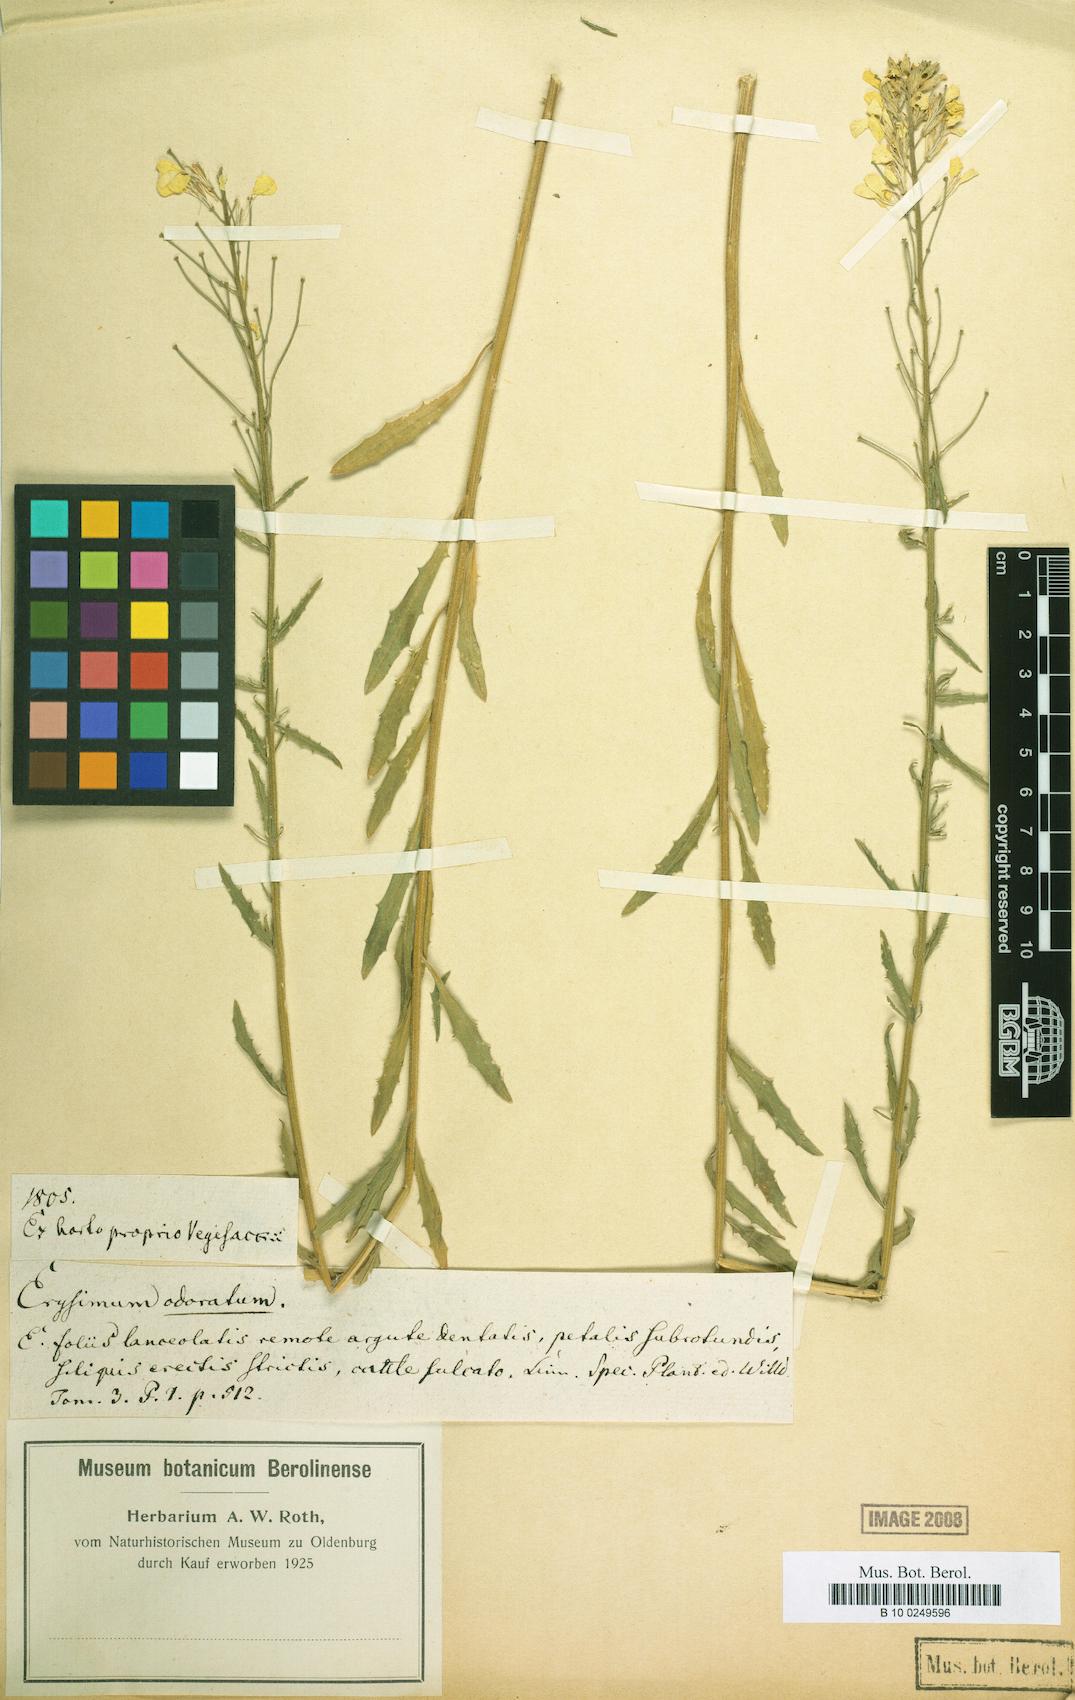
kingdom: Plantae
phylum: Tracheophyta
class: Magnoliopsida
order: Brassicales
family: Brassicaceae
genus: Erysimum
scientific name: Erysimum odoratum
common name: Smelly wallflower
